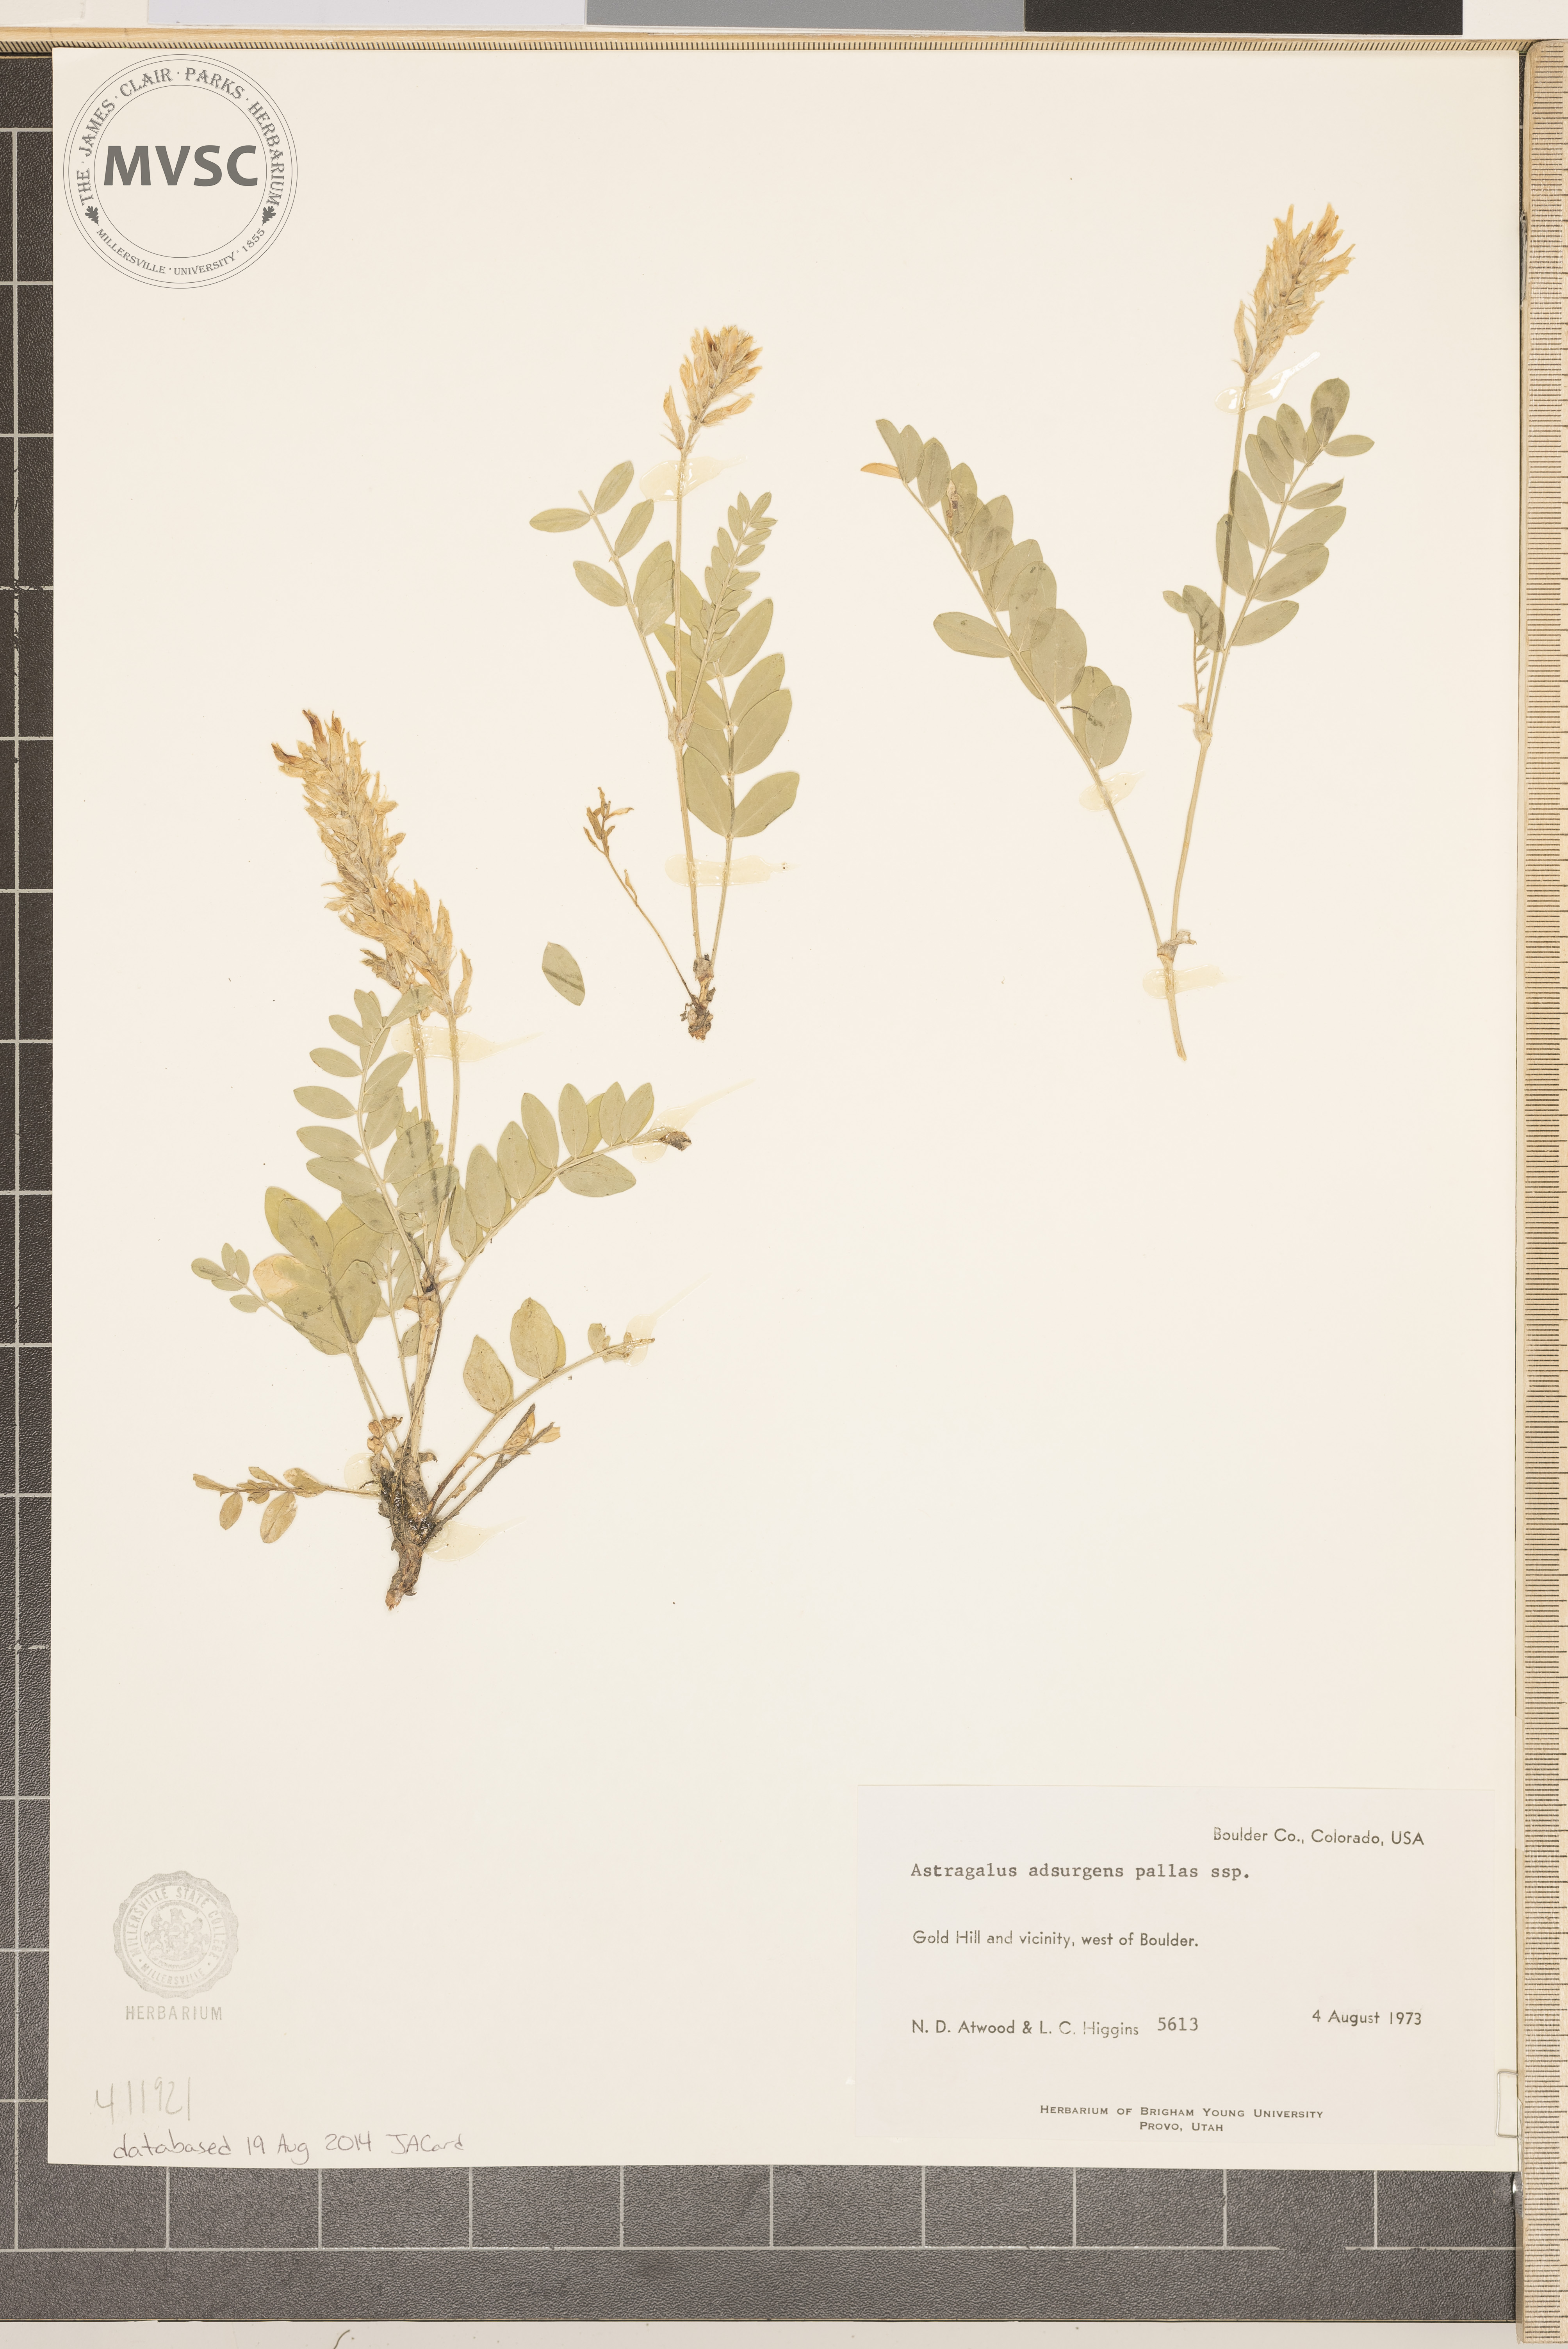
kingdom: Plantae
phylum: Tracheophyta
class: Magnoliopsida
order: Fabales
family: Fabaceae
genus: Astragalus
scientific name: Astragalus
